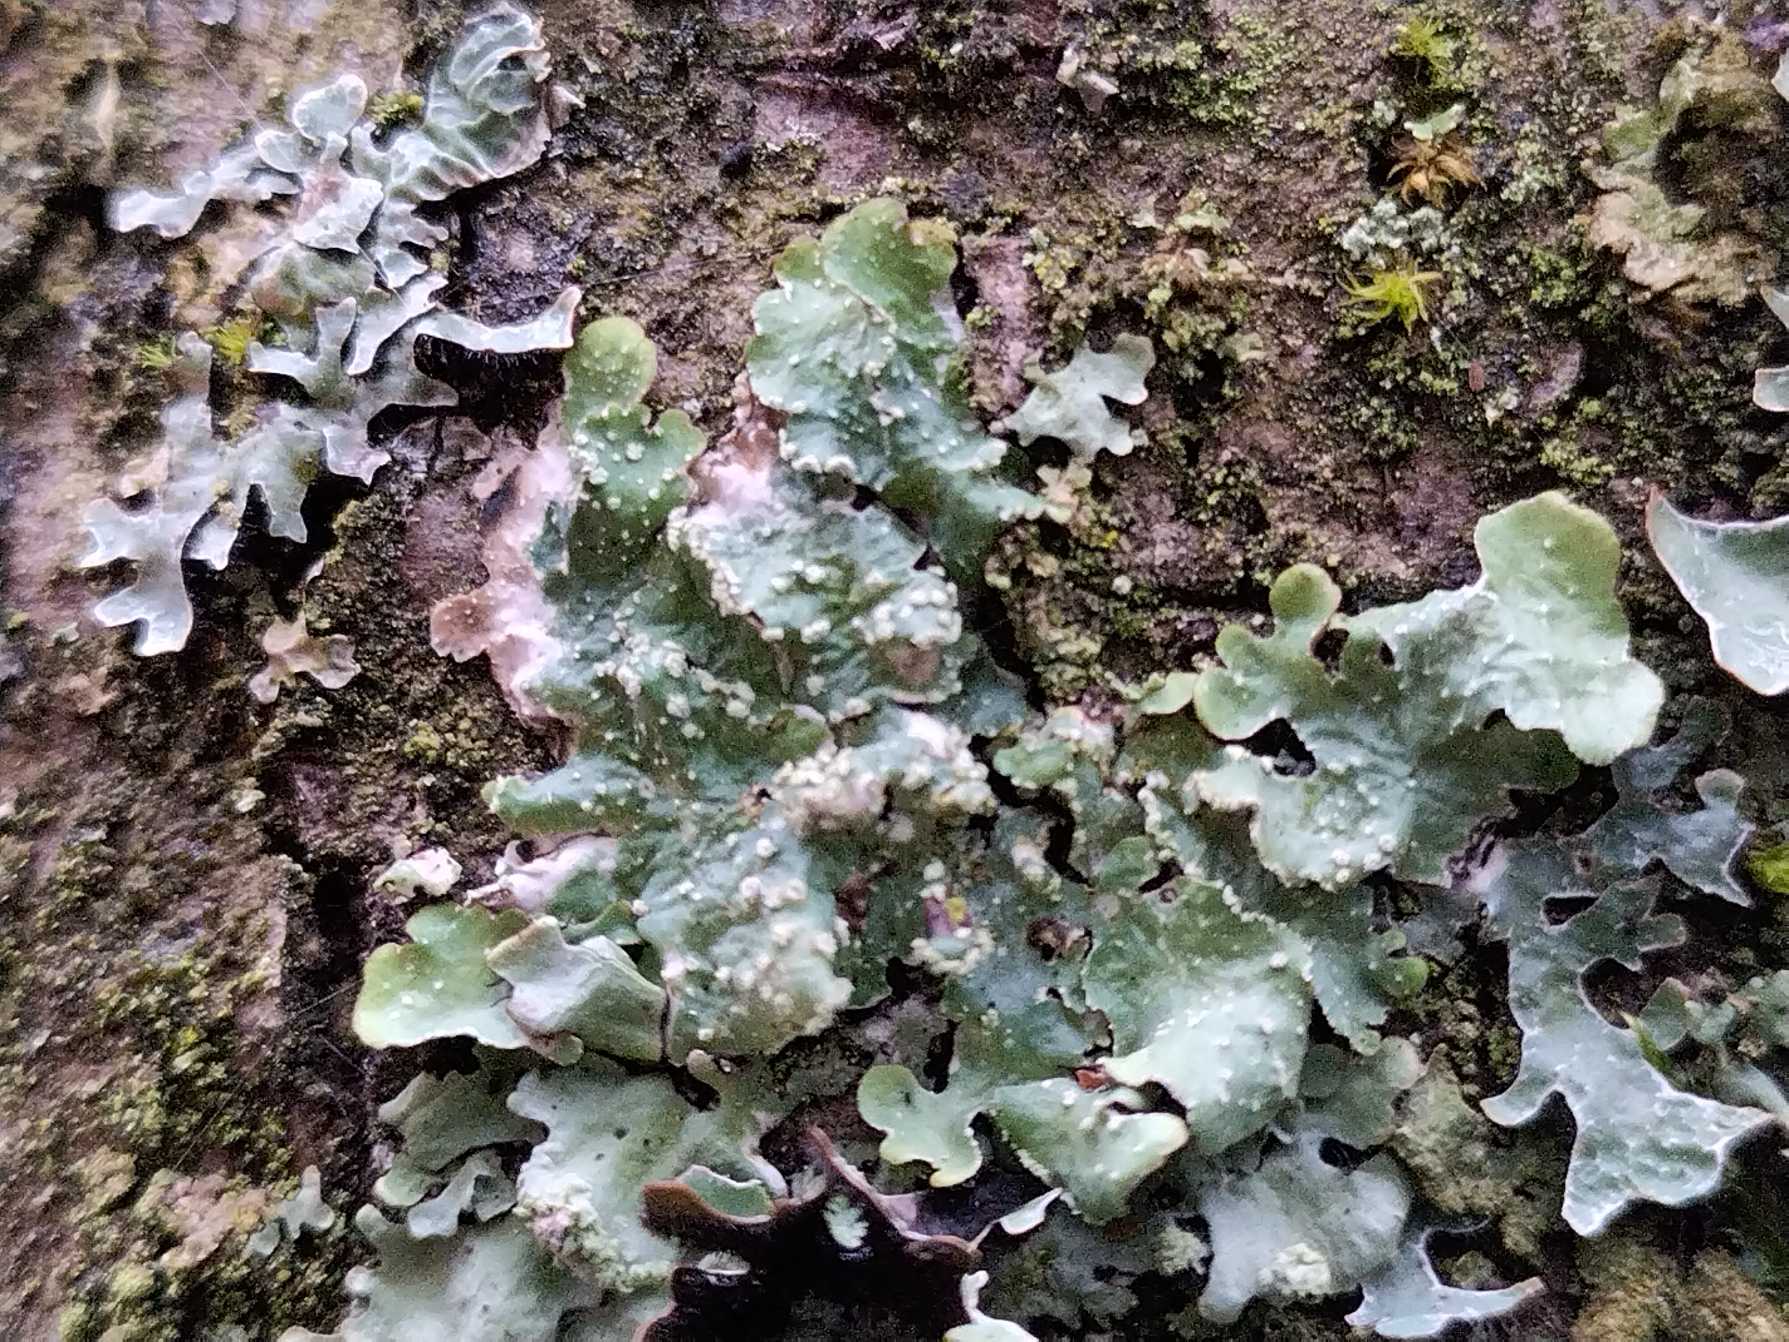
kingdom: Fungi
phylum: Ascomycota
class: Lecanoromycetes
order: Lecanorales
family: Parmeliaceae
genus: Punctelia
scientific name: Punctelia subrudecta
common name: Punkt-skållav
